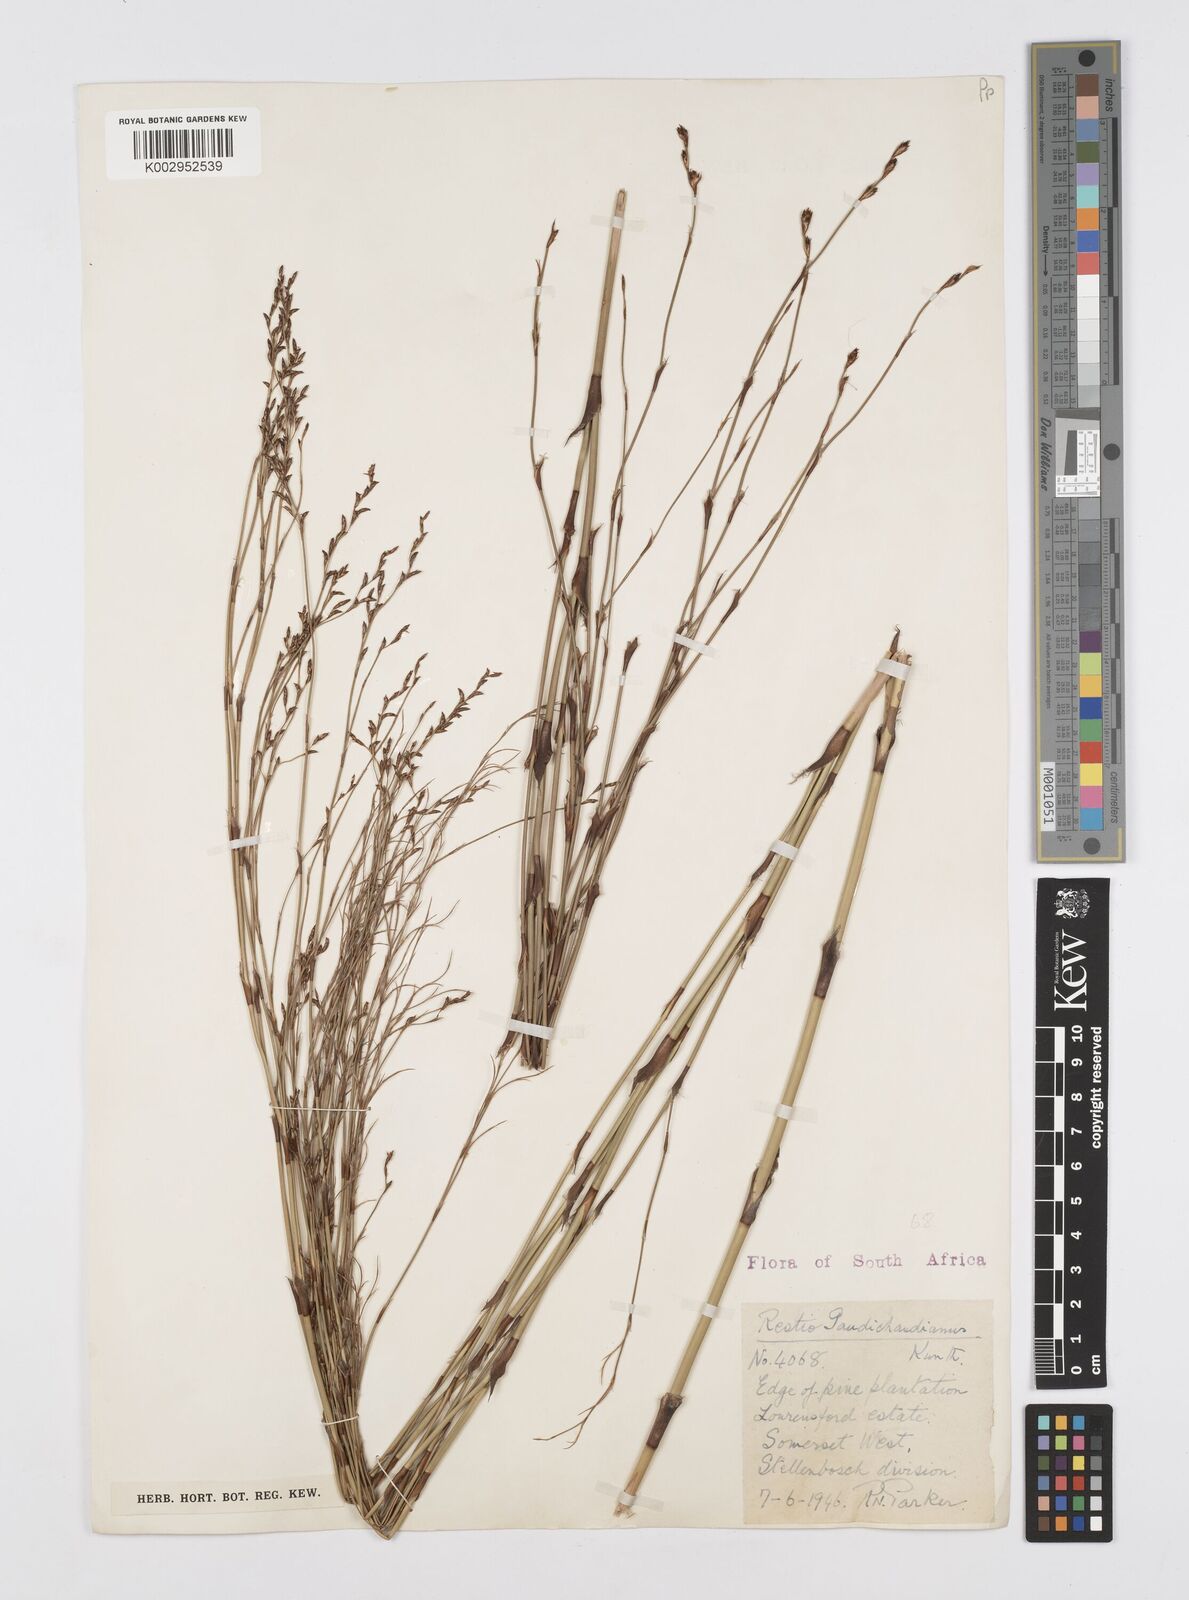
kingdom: Plantae
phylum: Tracheophyta
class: Liliopsida
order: Poales
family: Restionaceae
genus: Restio
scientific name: Restio gaudichaudianus
